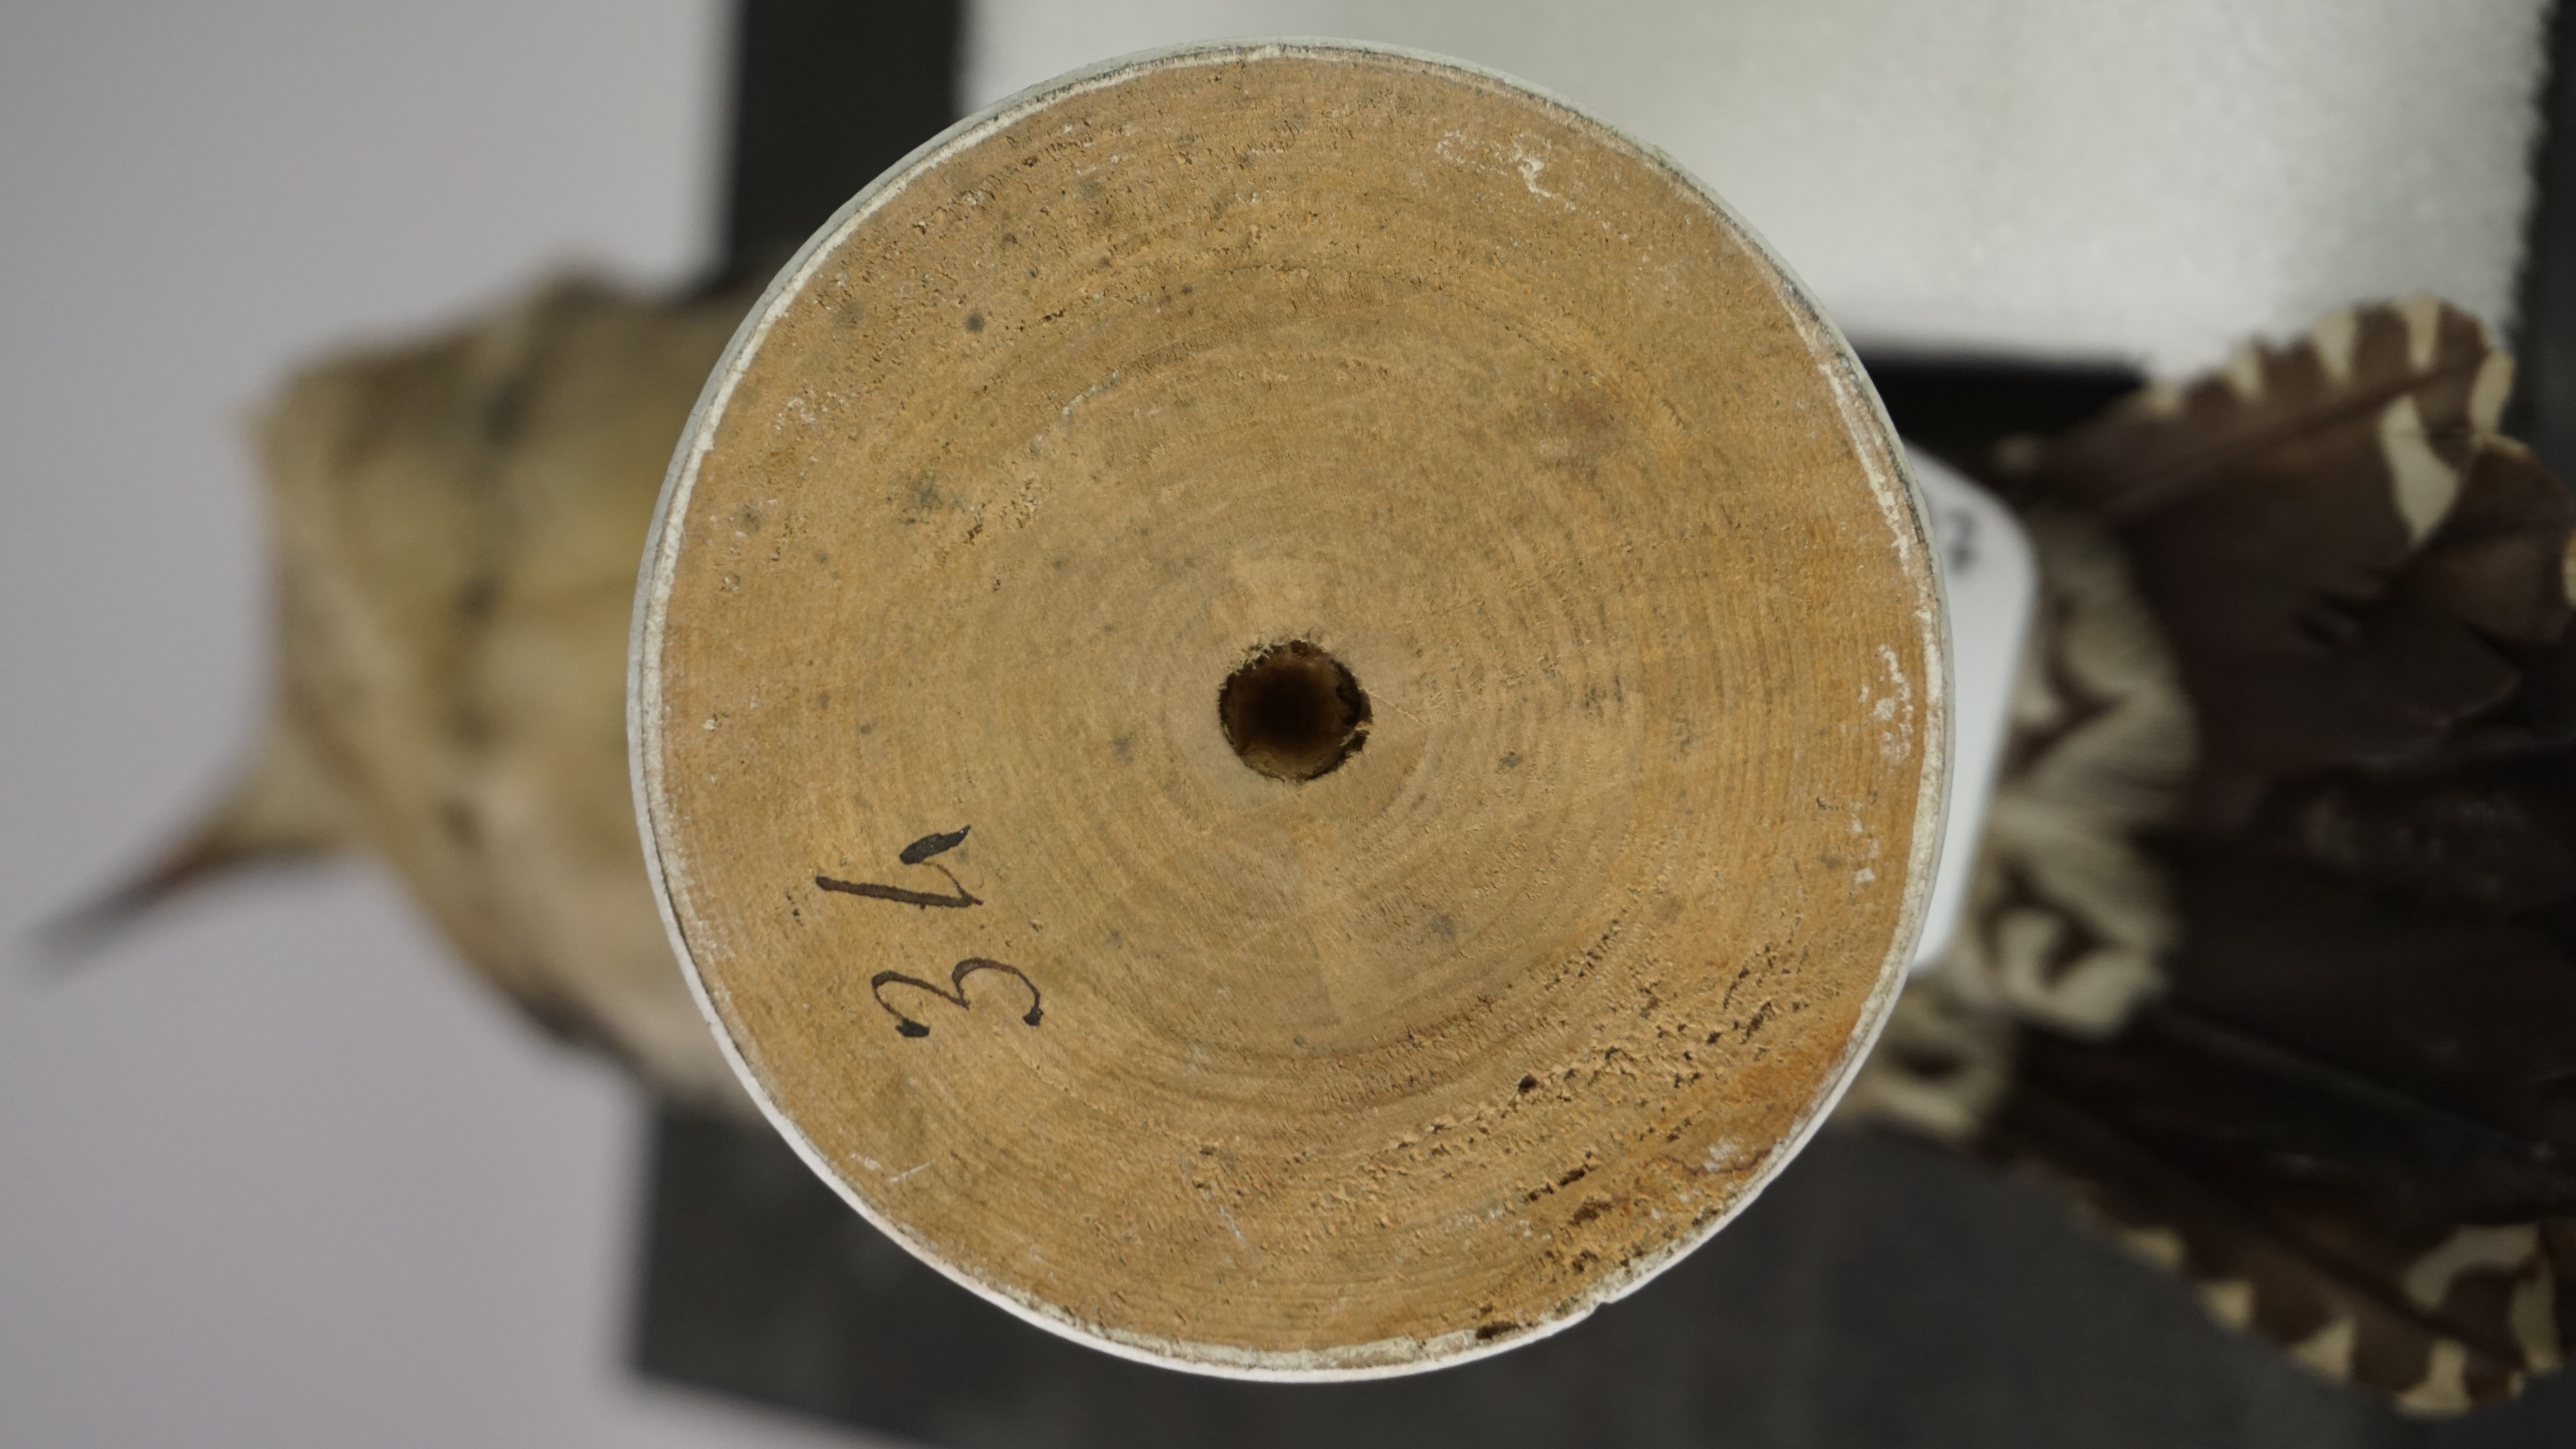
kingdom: Animalia
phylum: Chordata
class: Aves
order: Piciformes
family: Picidae
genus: Melanerpes
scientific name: Melanerpes aurifrons
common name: Golden-fronted woodpecker
